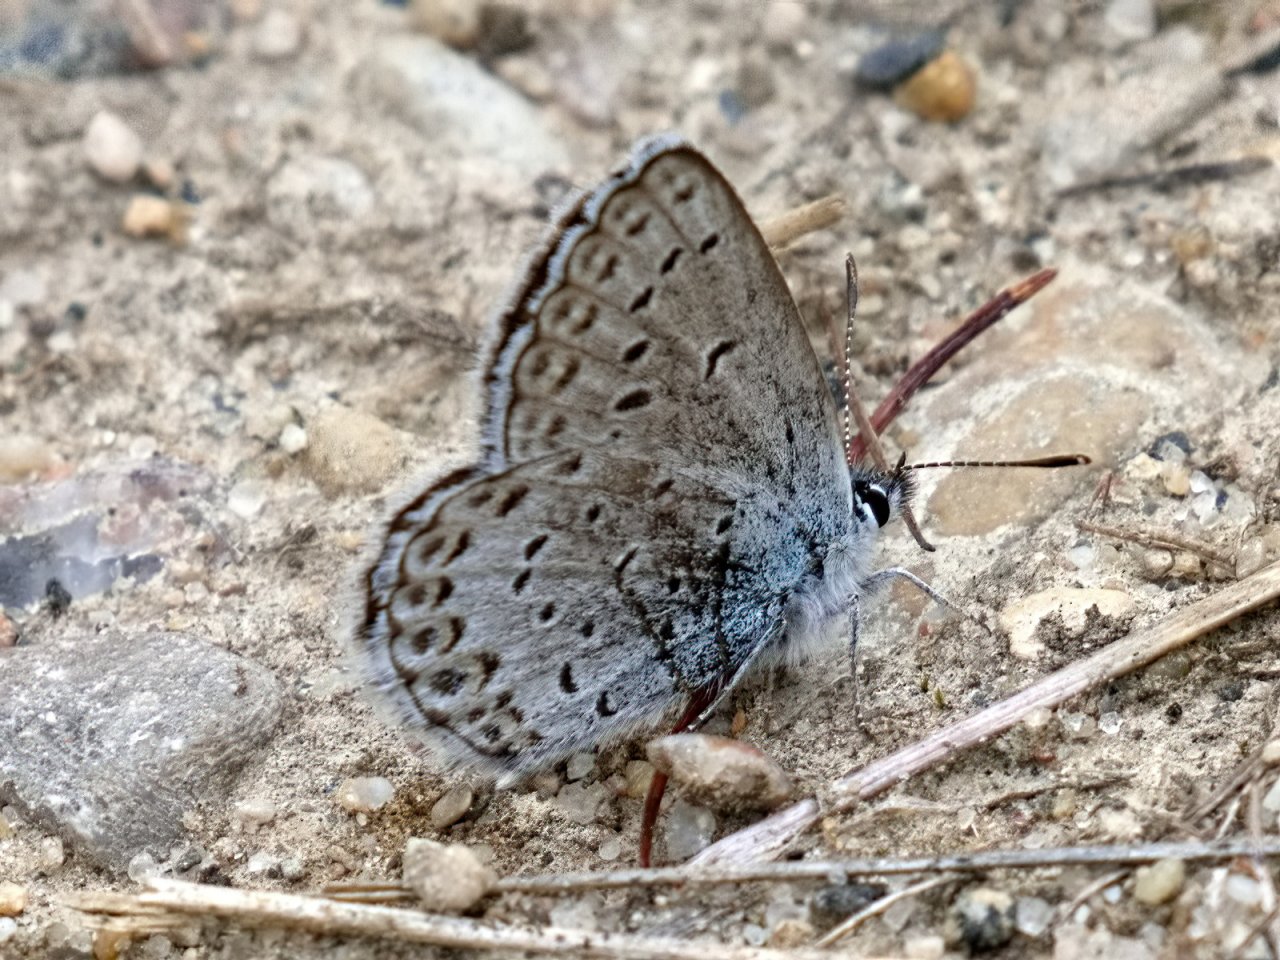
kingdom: Animalia
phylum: Arthropoda
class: Insecta
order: Lepidoptera
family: Lycaenidae
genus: Lycaeides
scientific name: Lycaeides idas
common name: Northern Blue
